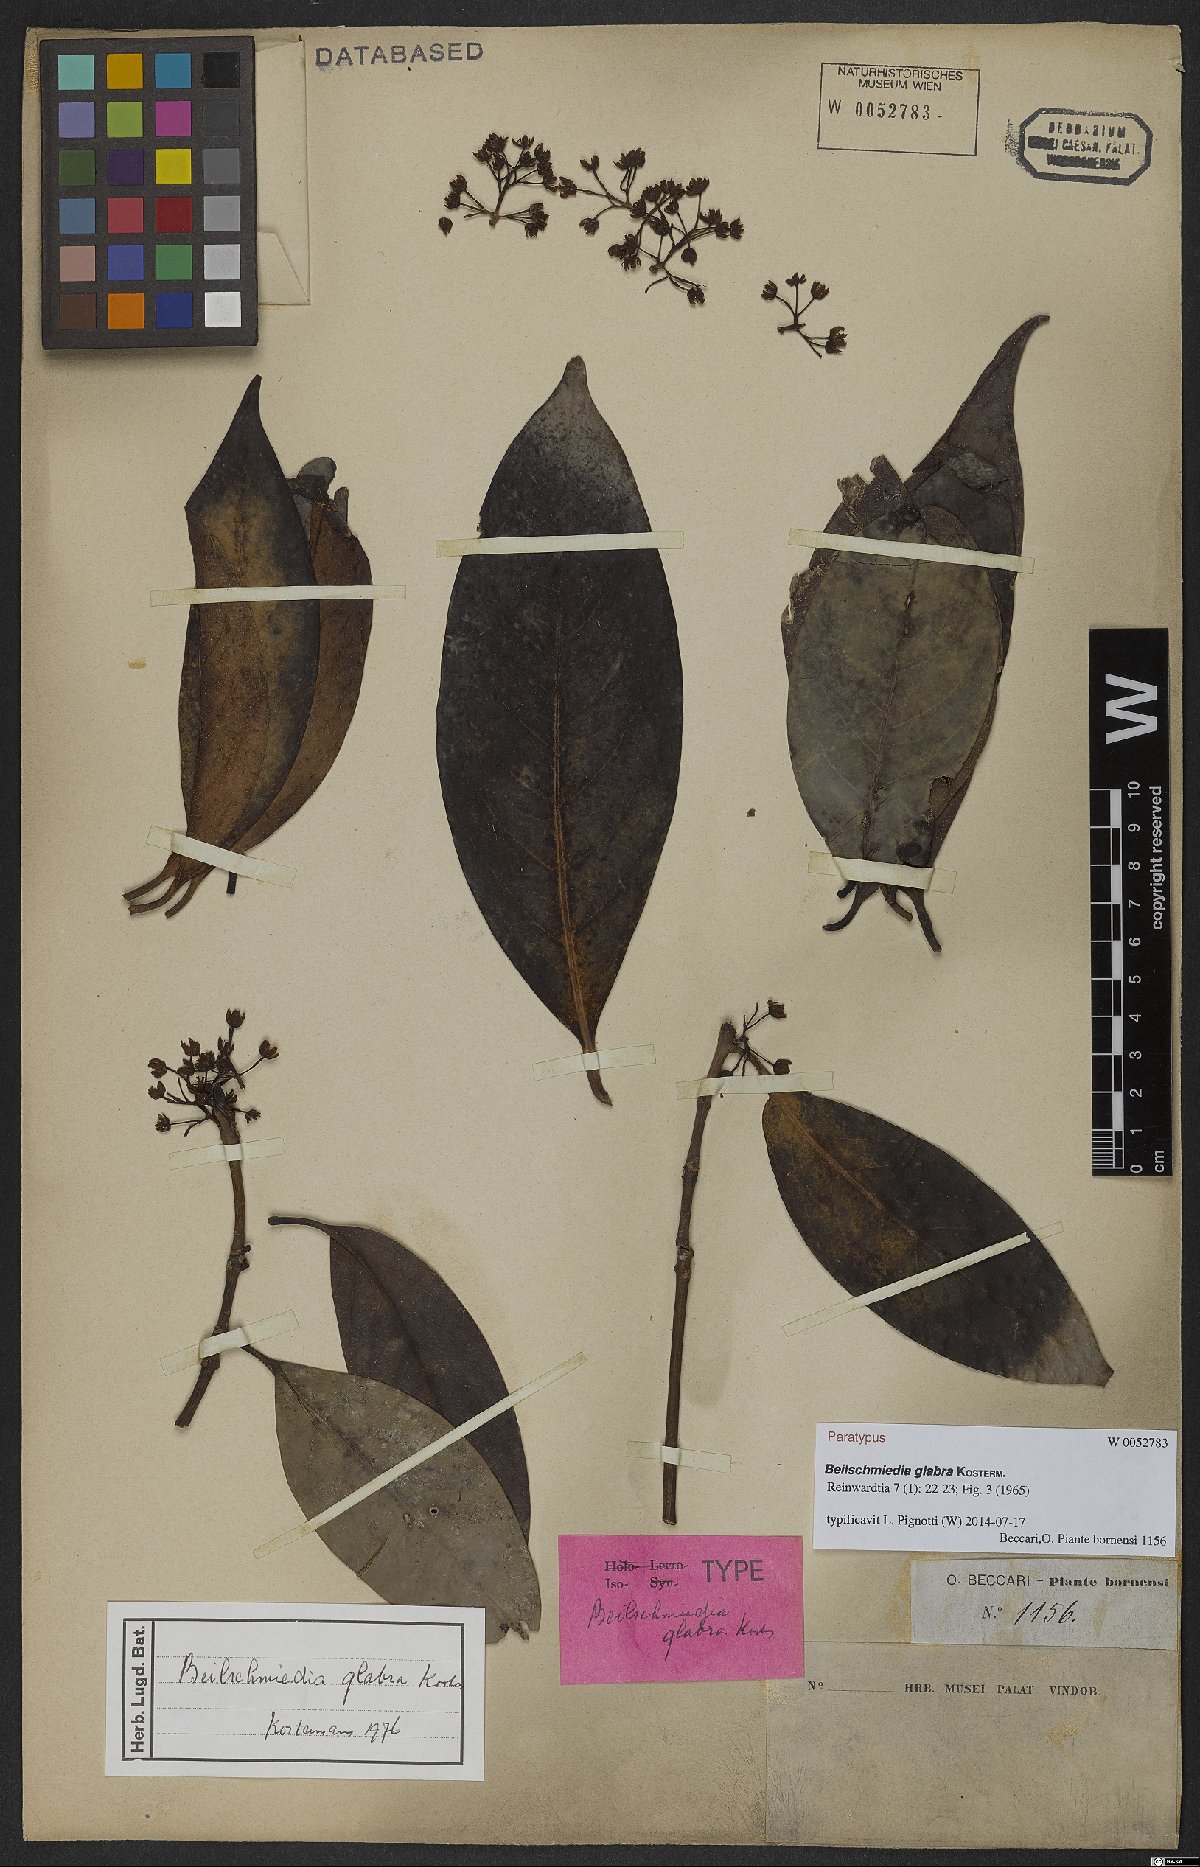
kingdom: Plantae
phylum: Tracheophyta
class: Magnoliopsida
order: Laurales
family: Lauraceae
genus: Beilschmiedia
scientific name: Beilschmiedia glabra
